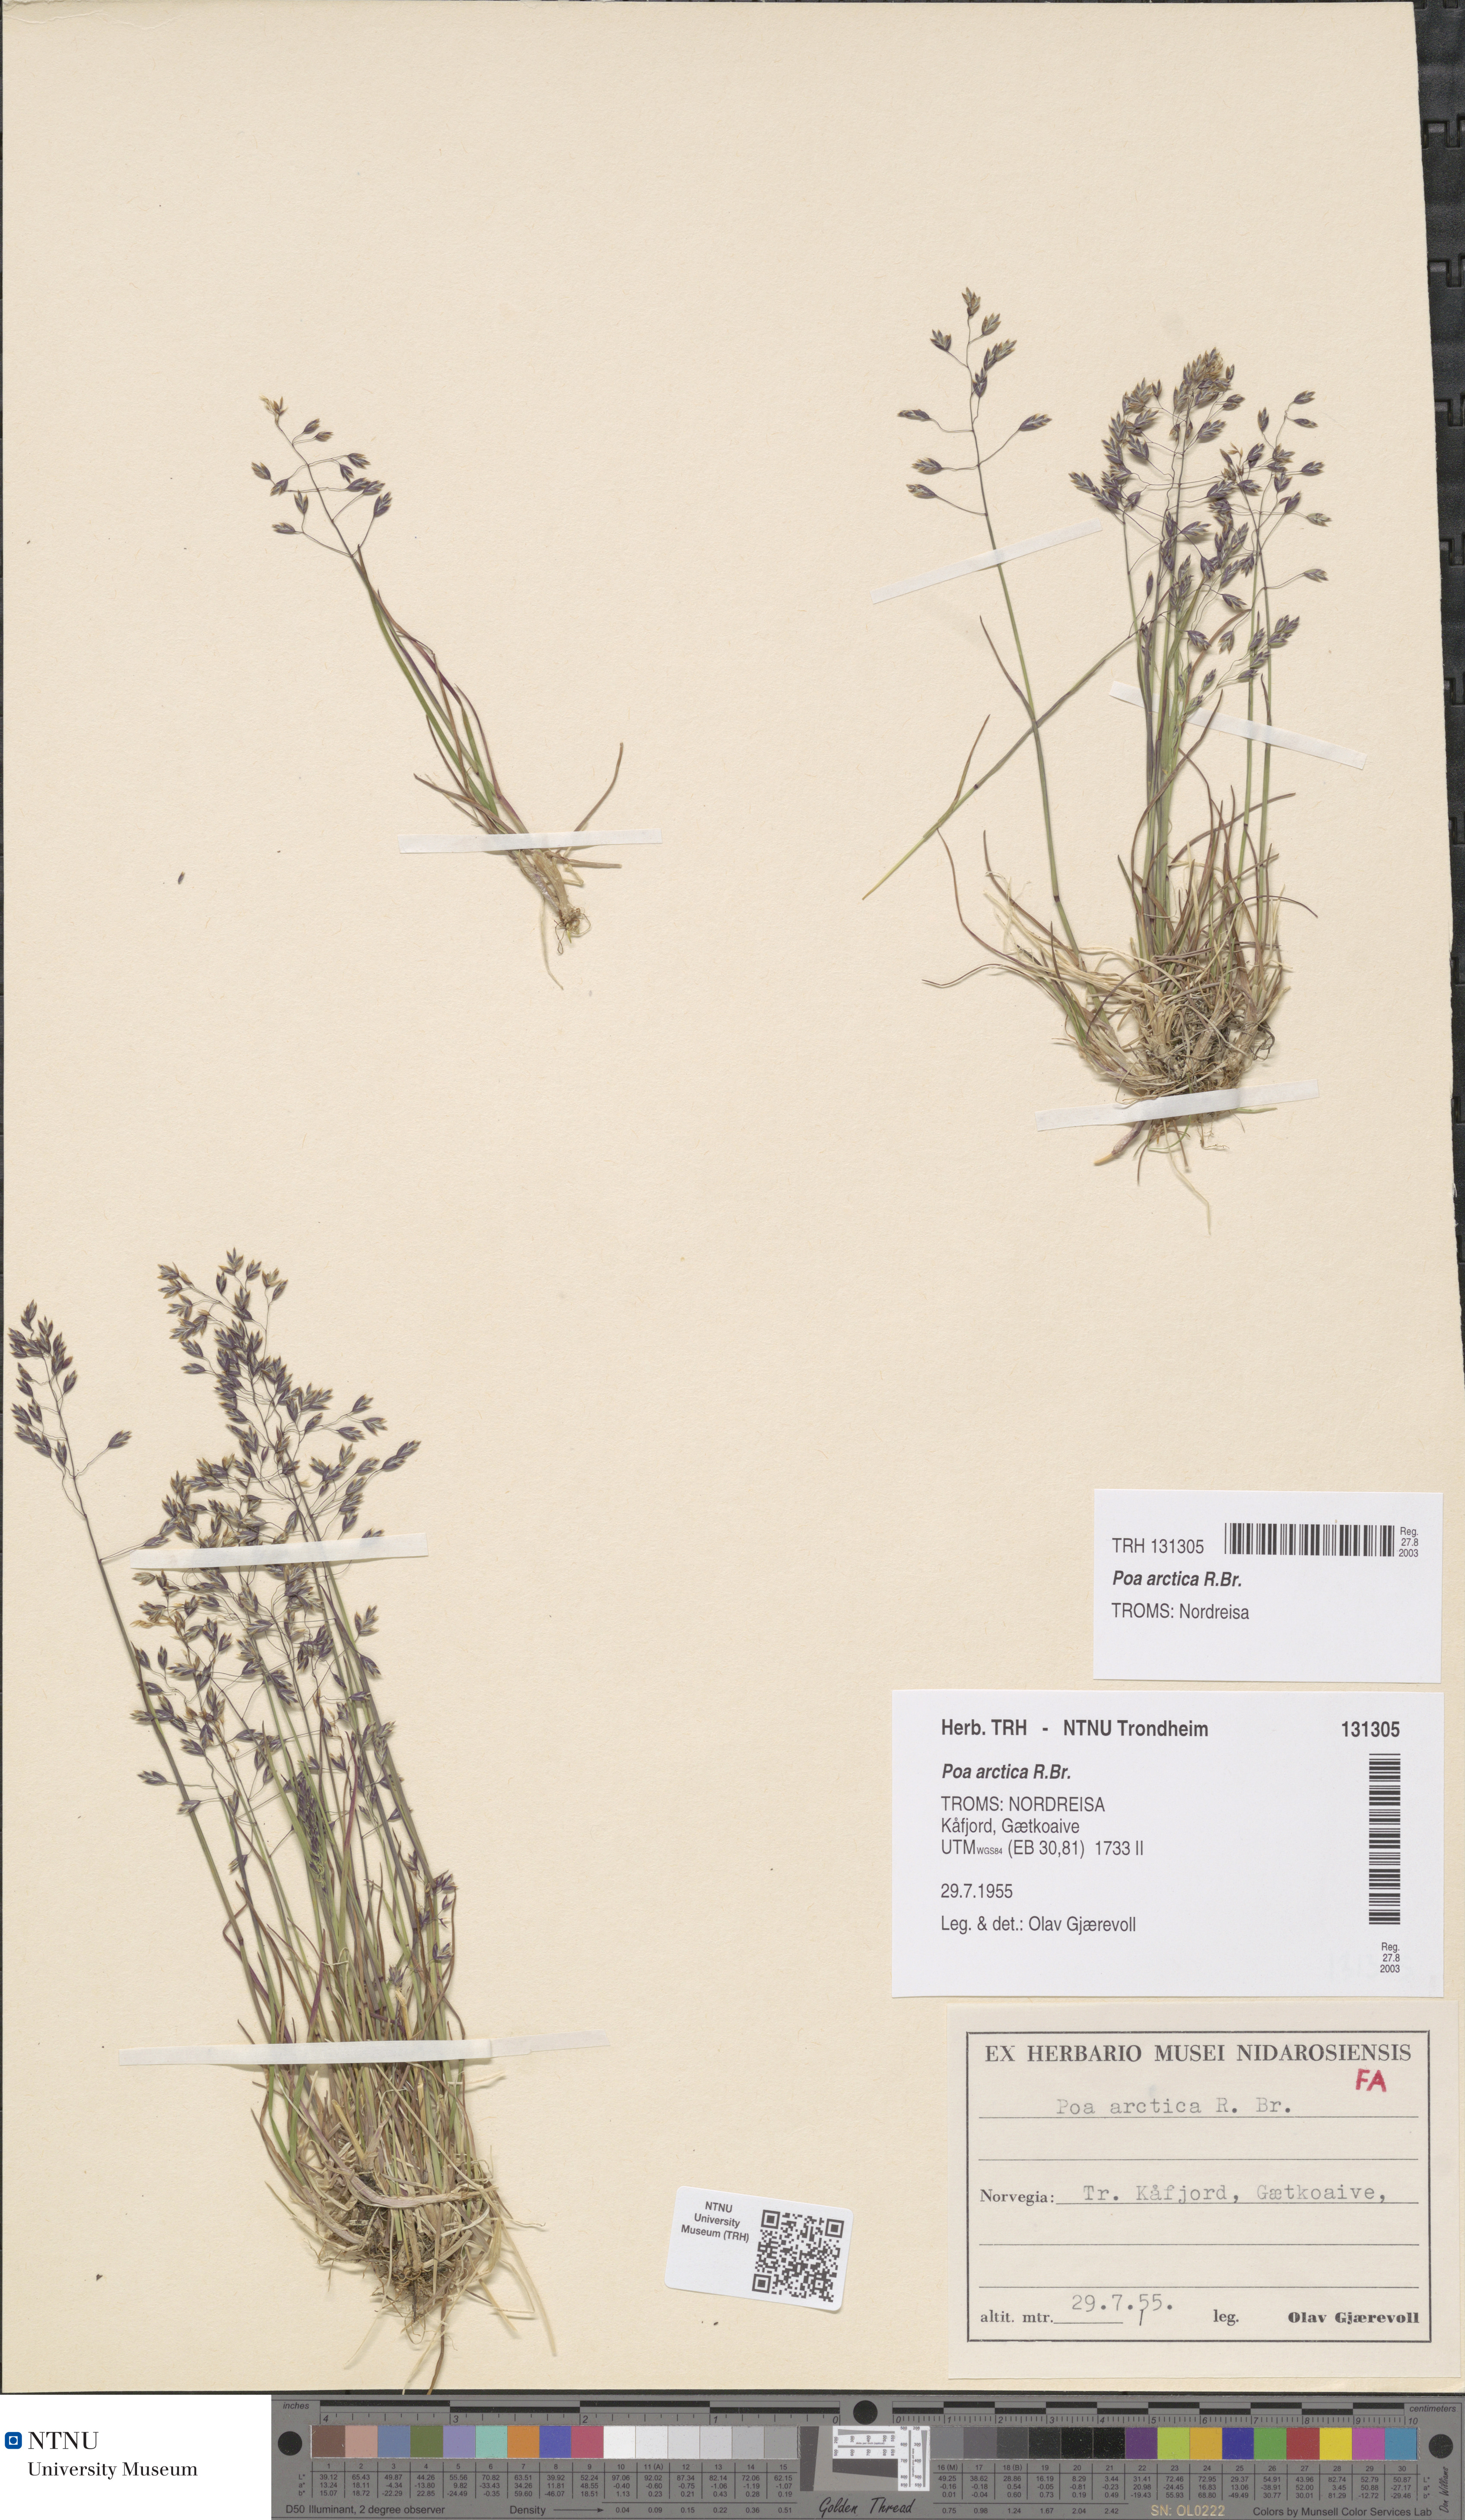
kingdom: Plantae
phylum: Tracheophyta
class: Liliopsida
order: Poales
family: Poaceae
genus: Poa
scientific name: Poa arctica
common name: Arctic bluegrass
